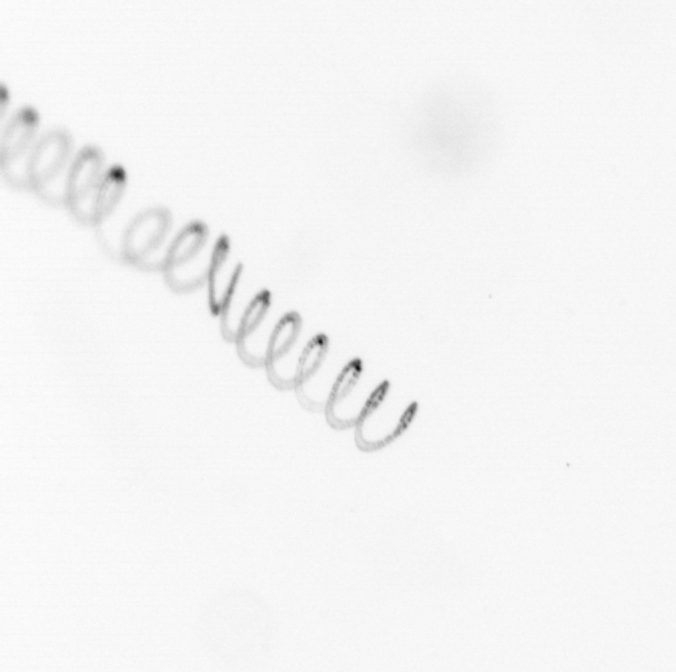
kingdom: Chromista
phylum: Ochrophyta
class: Bacillariophyceae
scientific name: Bacillariophyceae
